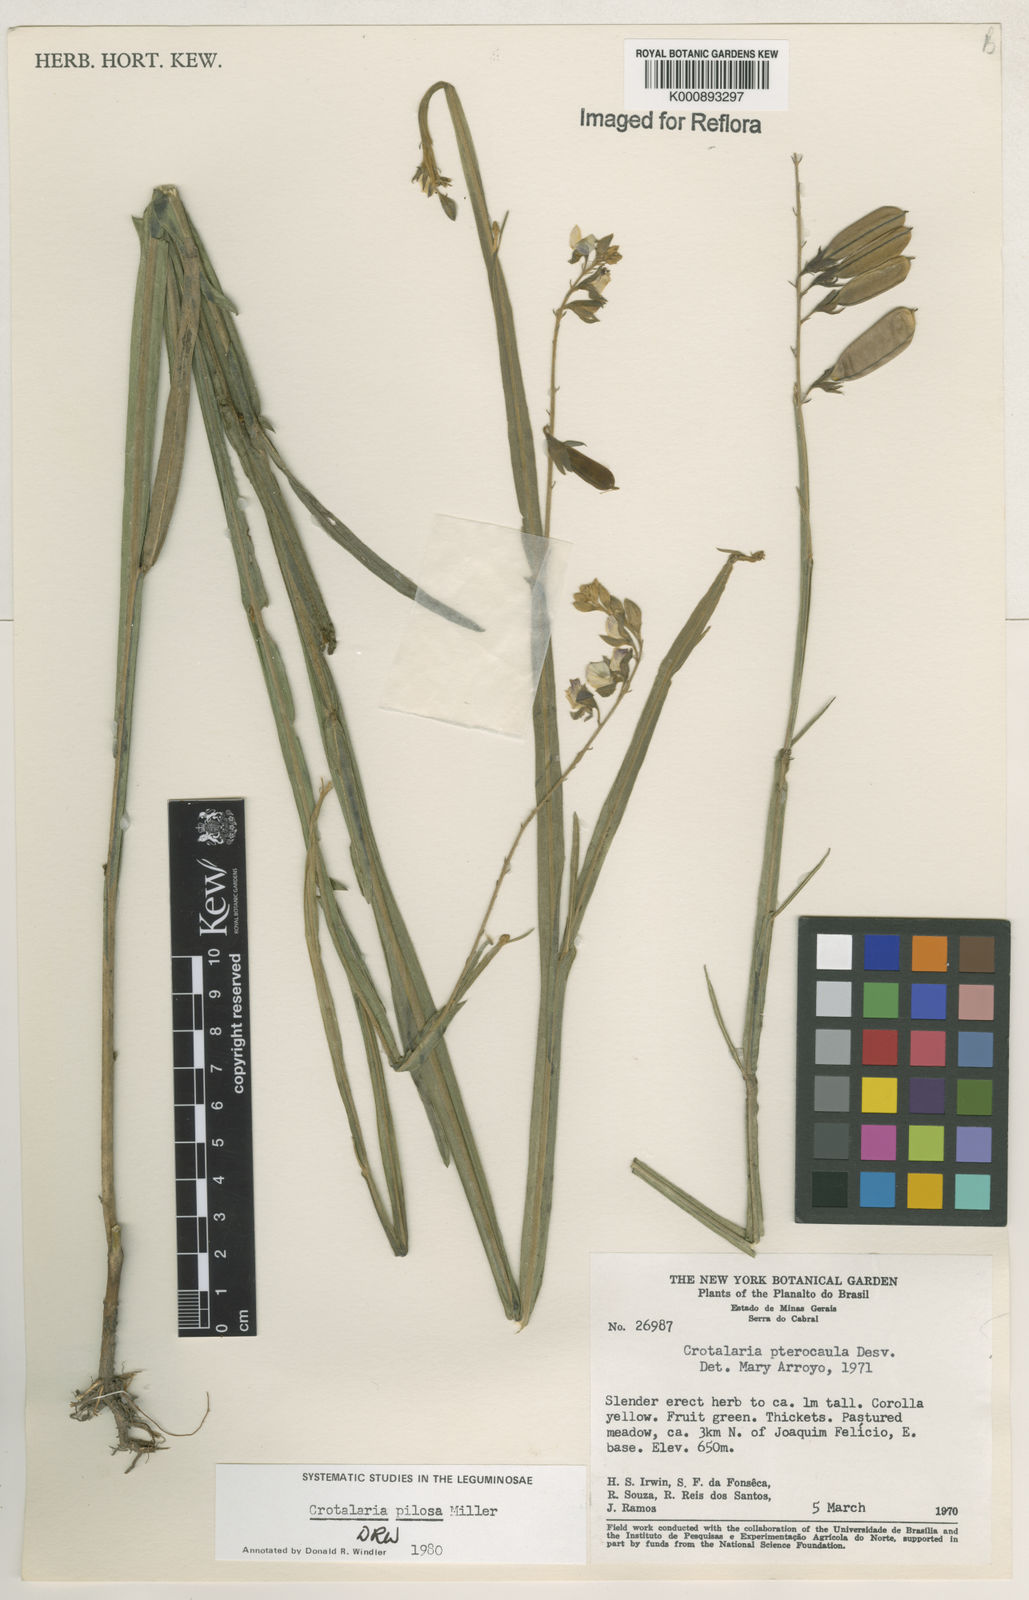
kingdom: Plantae
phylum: Tracheophyta
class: Magnoliopsida
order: Fabales
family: Fabaceae
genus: Crotalaria
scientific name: Crotalaria pilosa
